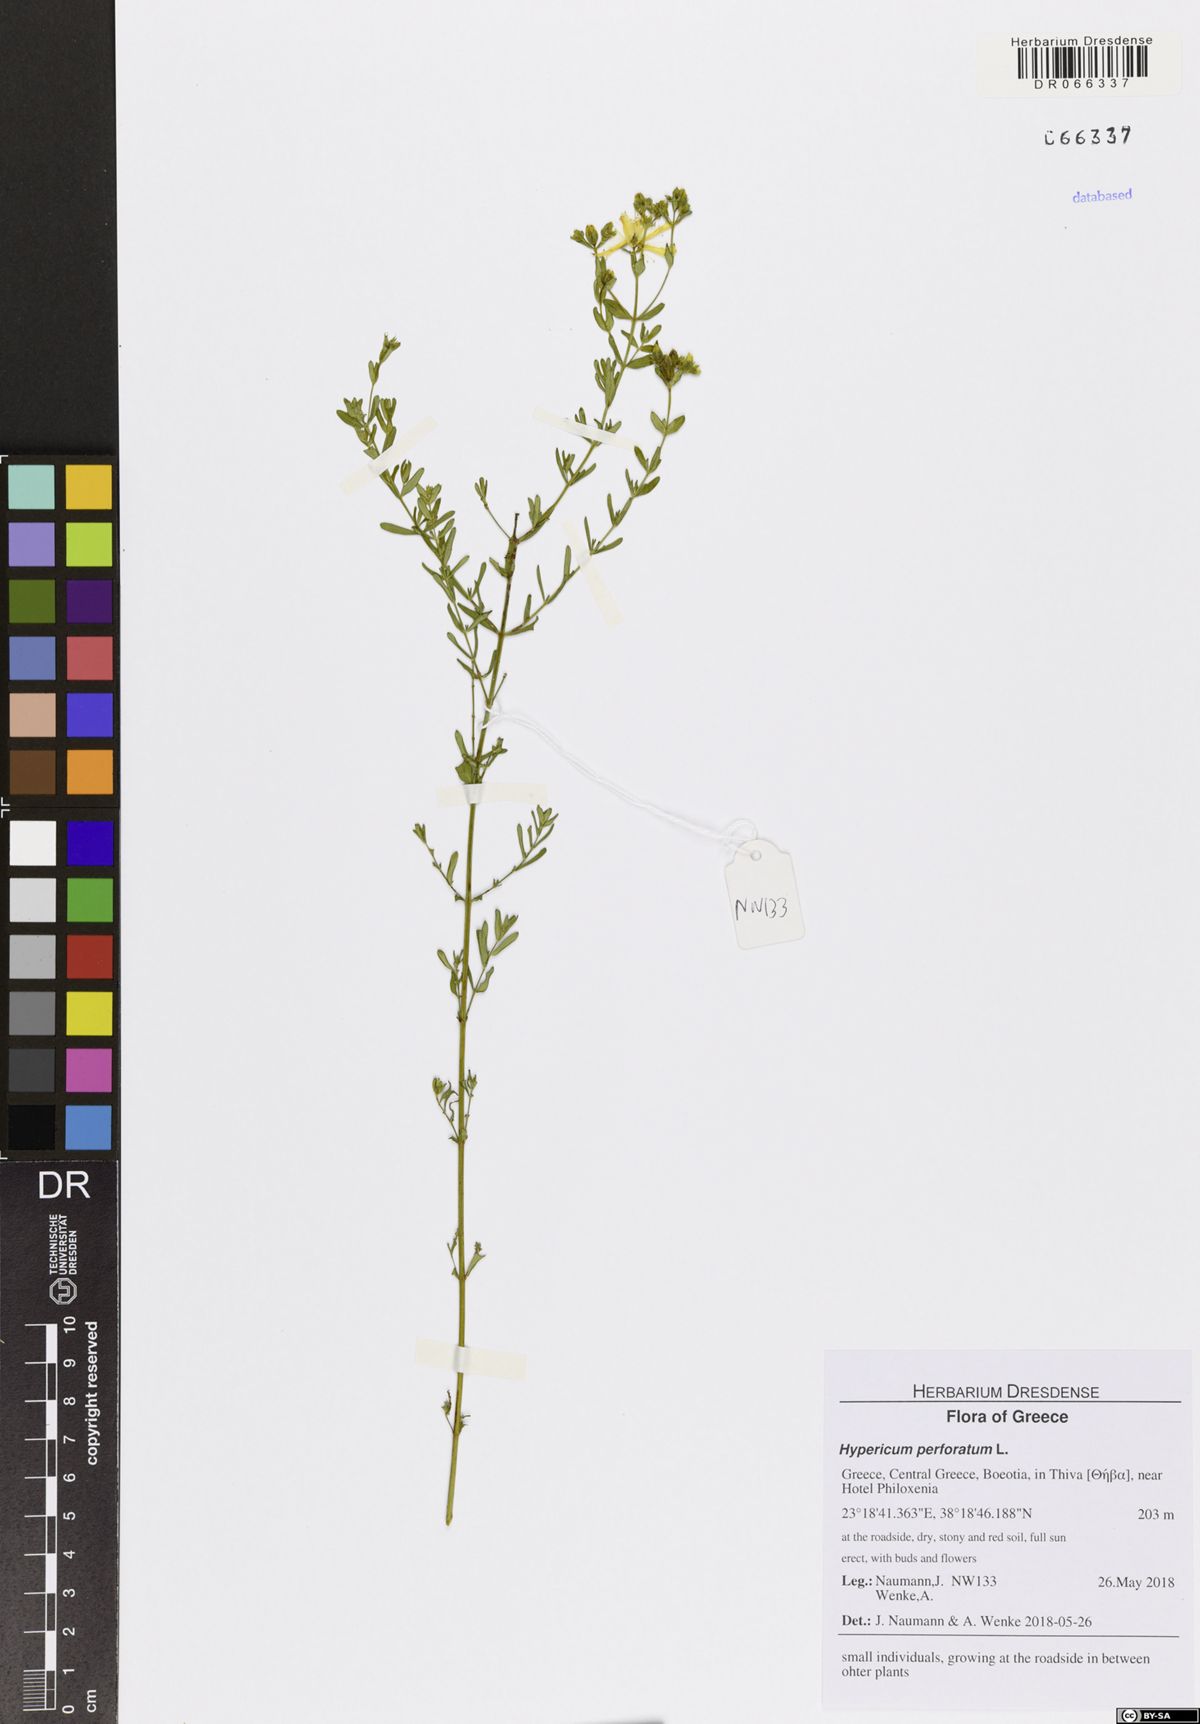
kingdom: Plantae
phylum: Tracheophyta
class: Magnoliopsida
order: Malpighiales
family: Hypericaceae
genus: Hypericum
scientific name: Hypericum perforatum
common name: Common st. johnswort
